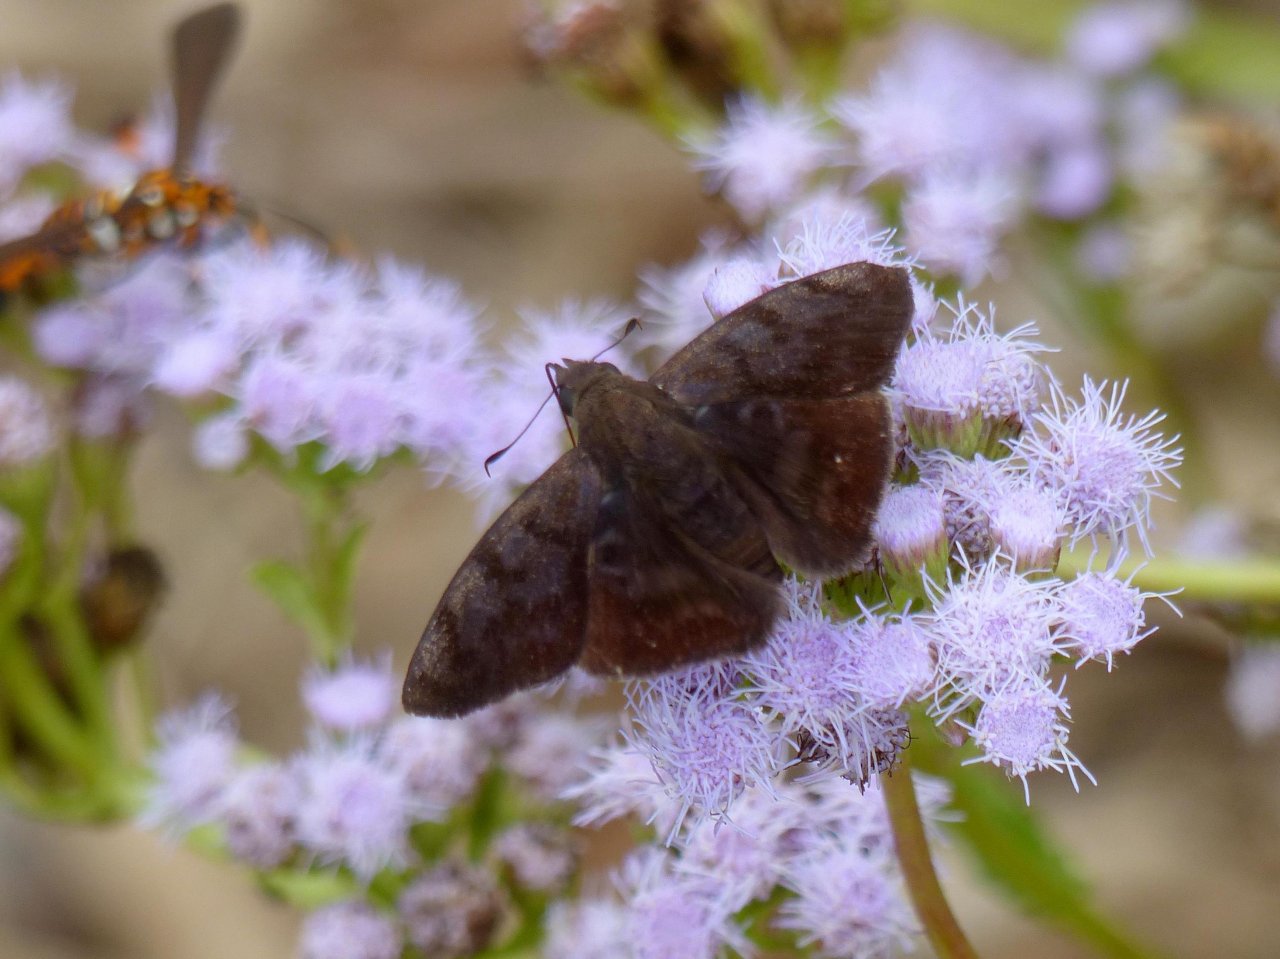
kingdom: Animalia
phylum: Arthropoda
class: Insecta
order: Lepidoptera
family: Hesperiidae
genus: Pellicia
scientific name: Pellicia costimacula
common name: Glazed Pellicia
